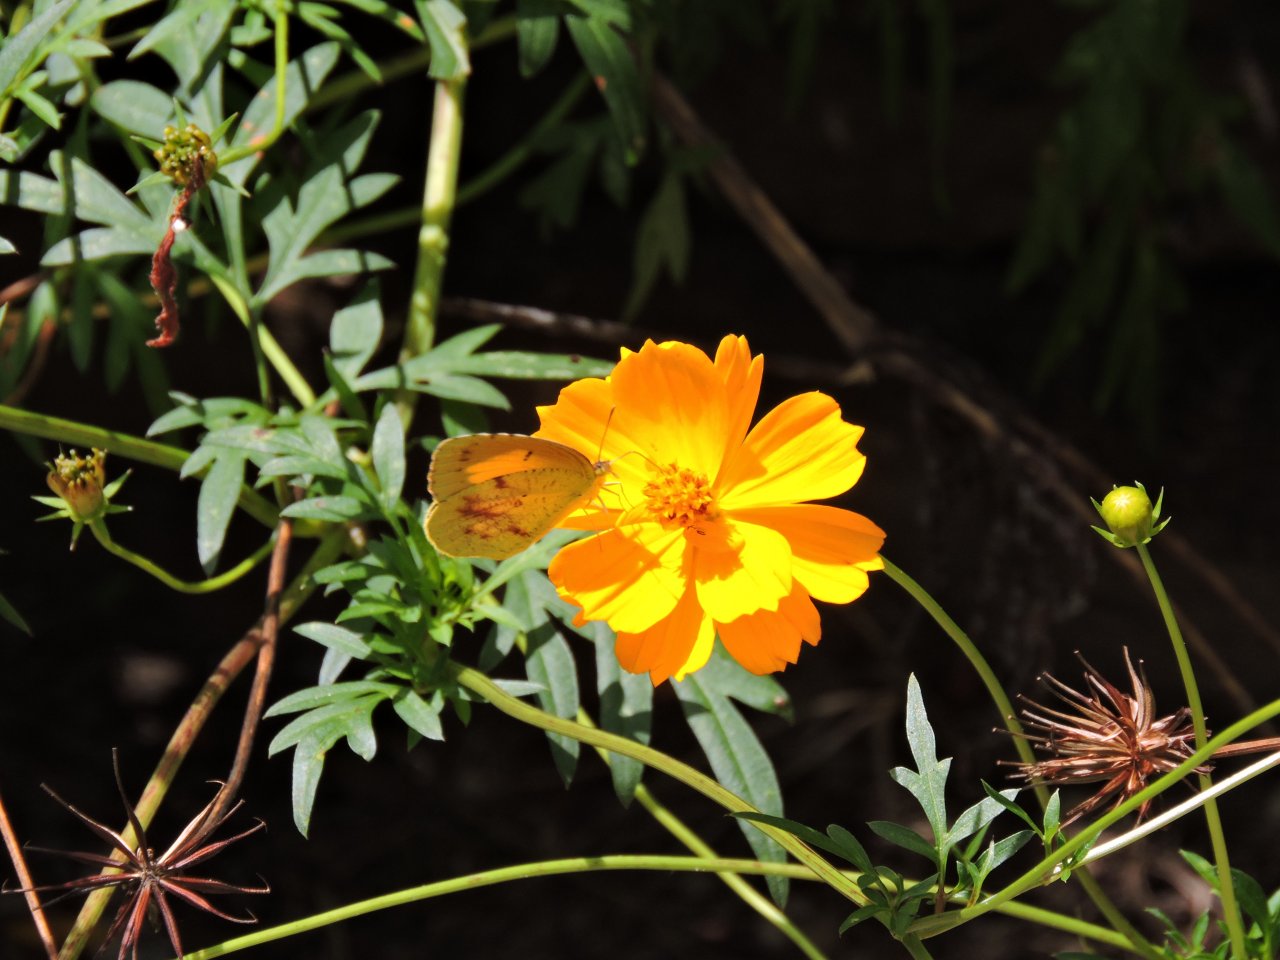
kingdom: Animalia
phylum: Arthropoda
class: Insecta
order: Lepidoptera
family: Pieridae
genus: Abaeis
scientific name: Abaeis nicippe
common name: Sleepy Orange
